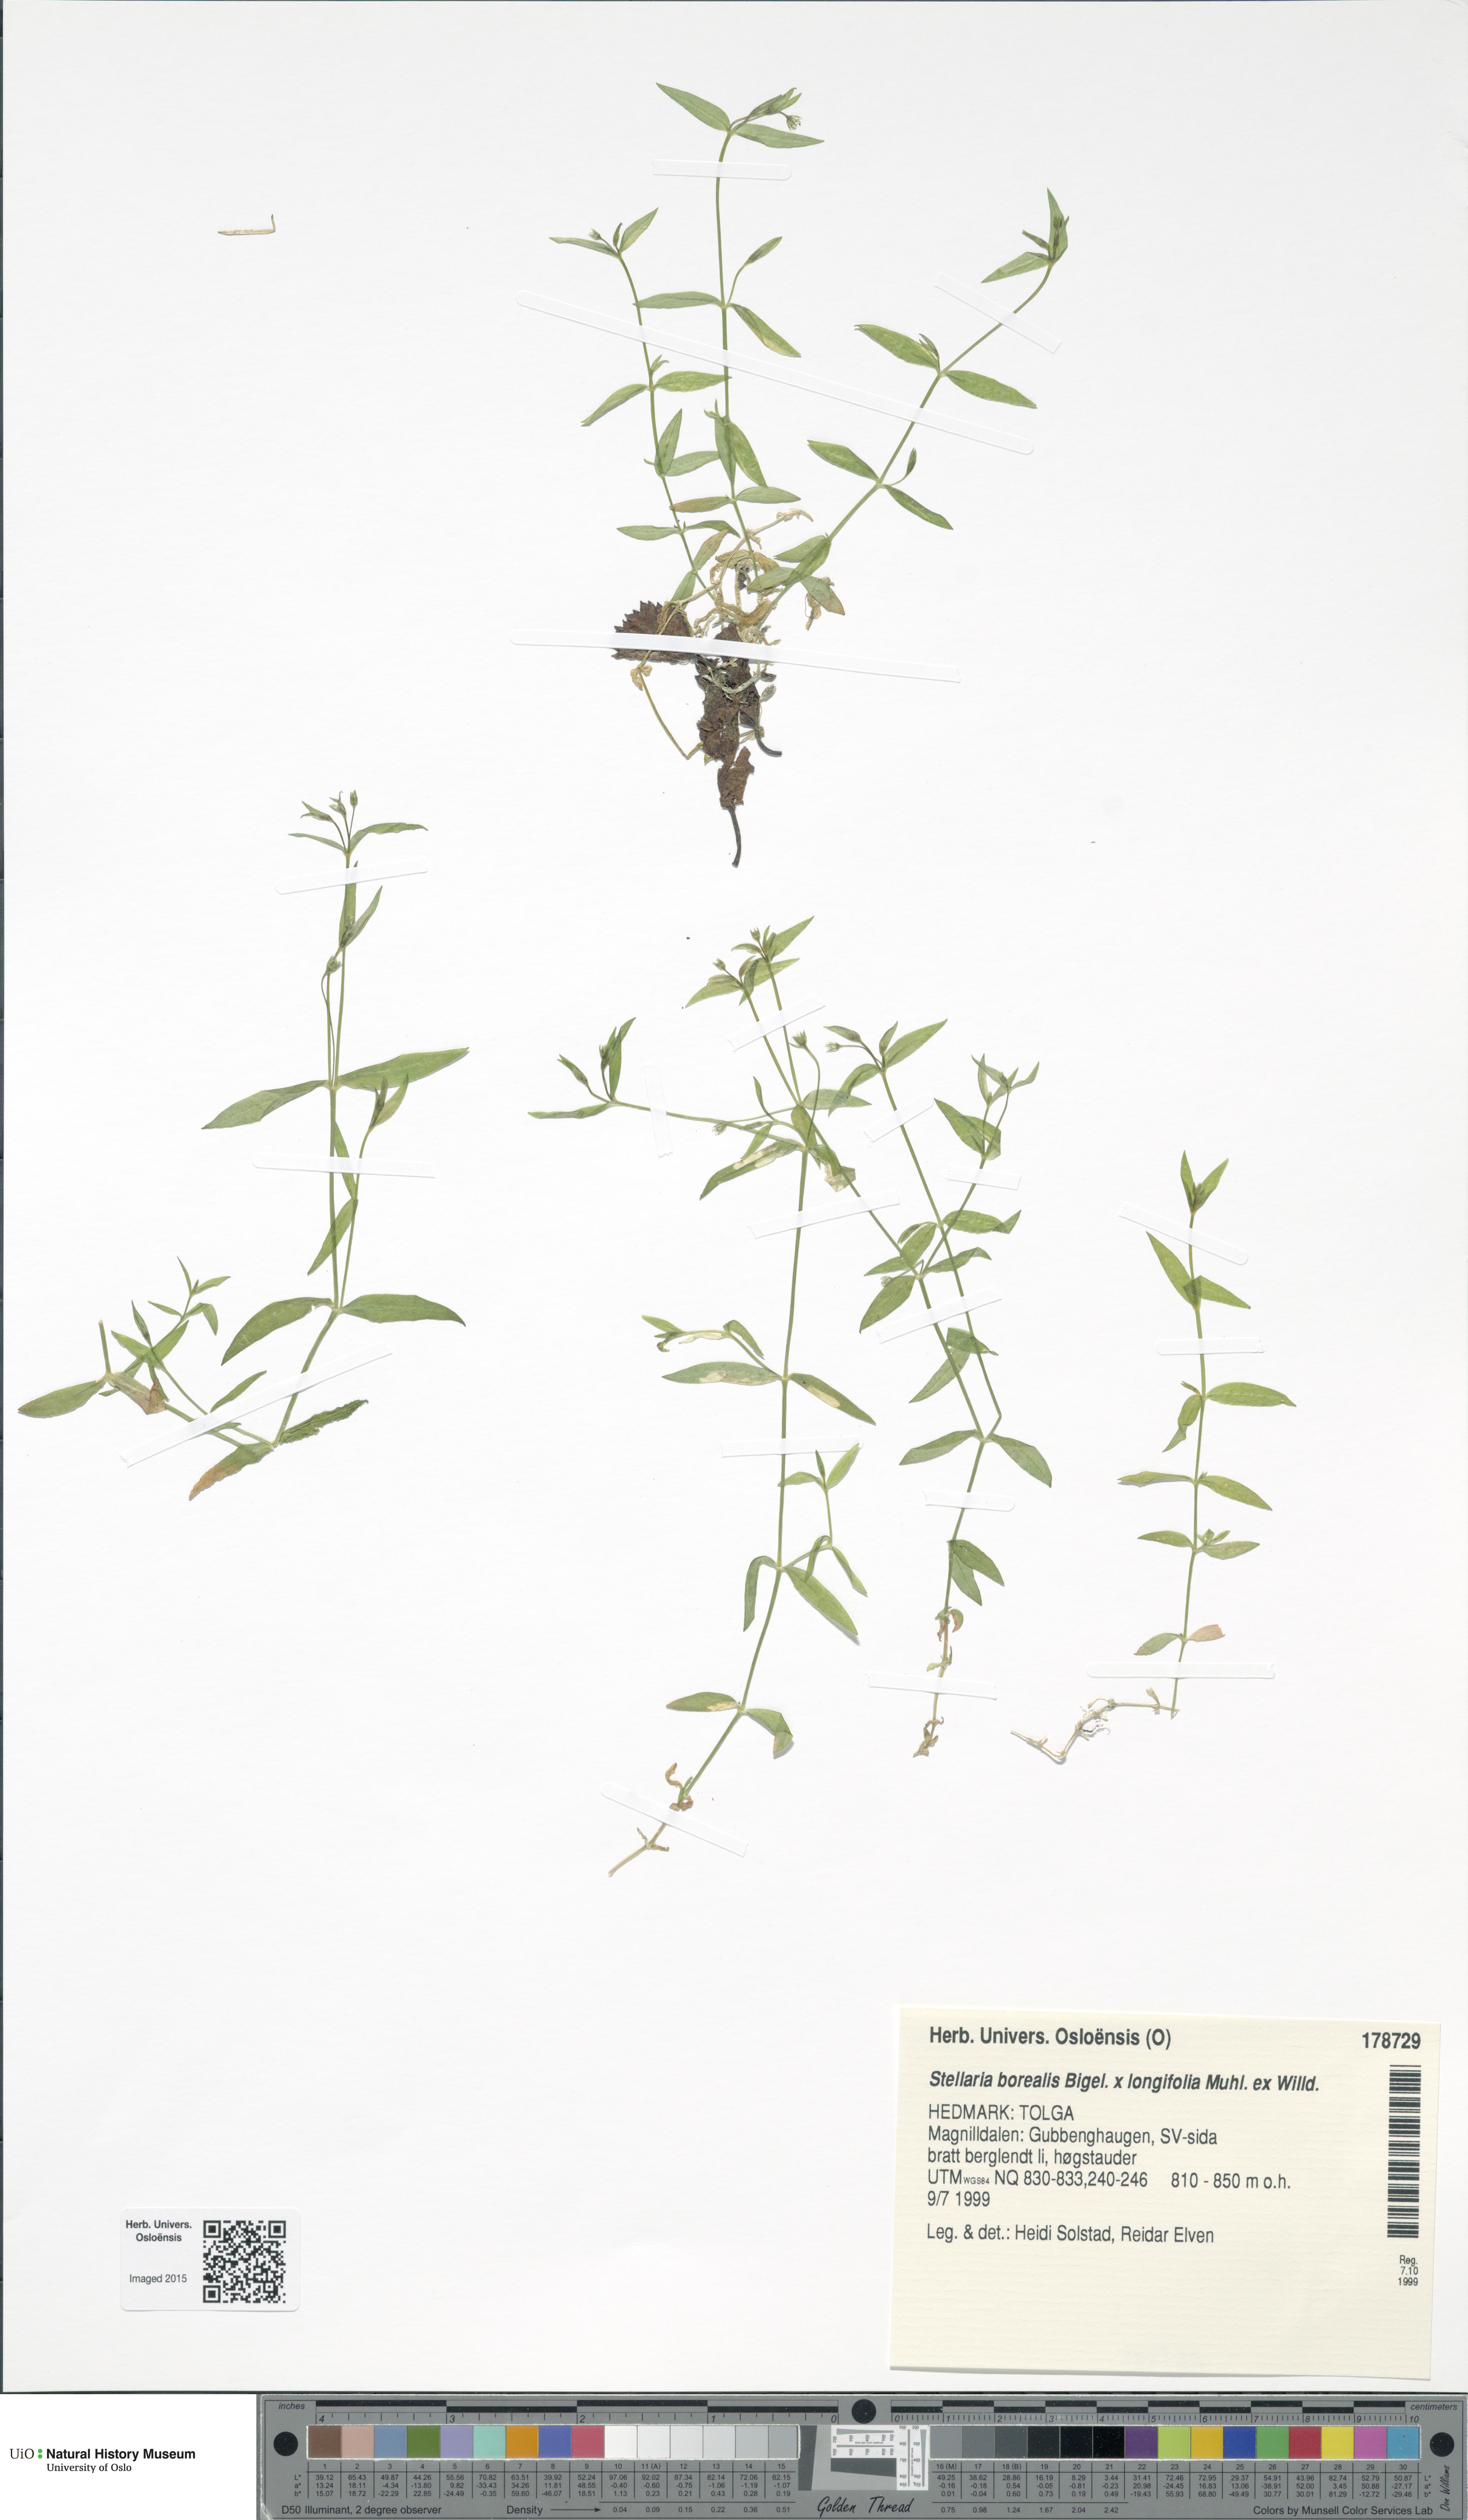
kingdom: Plantae
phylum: Tracheophyta
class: Magnoliopsida
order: Caryophyllales
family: Caryophyllaceae
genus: Stellaria
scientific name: Stellaria
